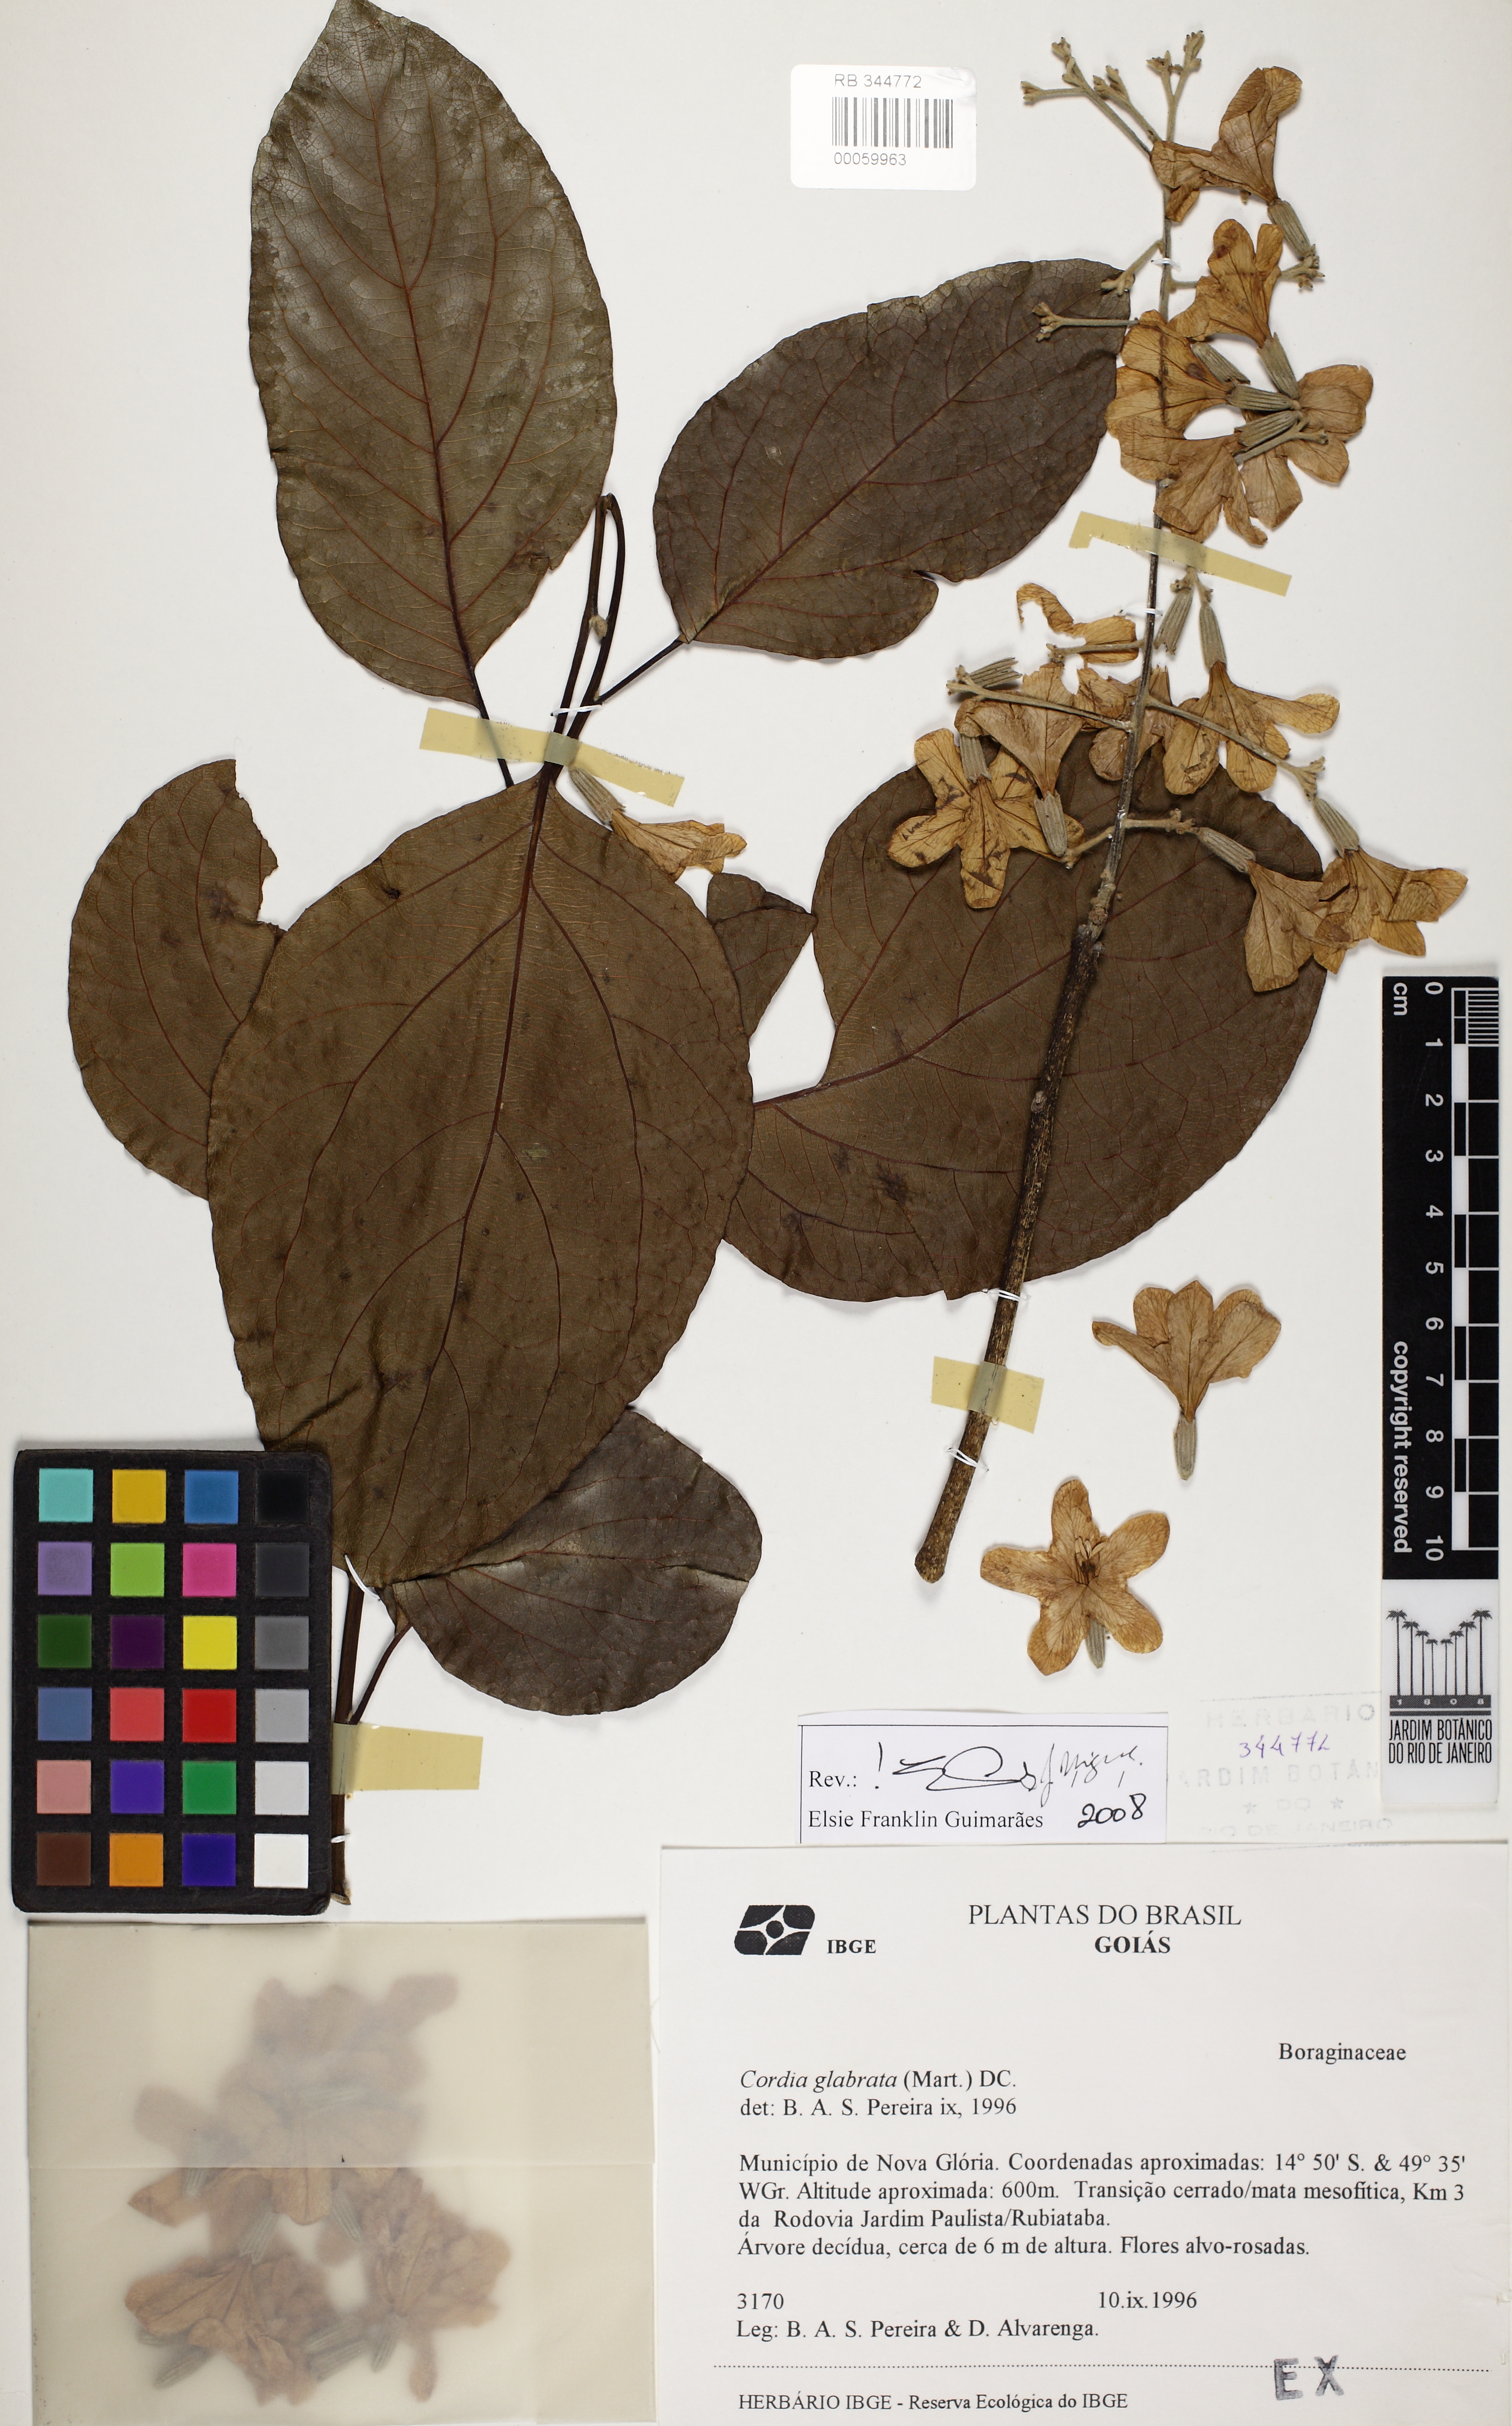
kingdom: Plantae
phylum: Tracheophyta
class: Magnoliopsida
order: Boraginales
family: Cordiaceae
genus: Cordia
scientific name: Cordia glabrata
